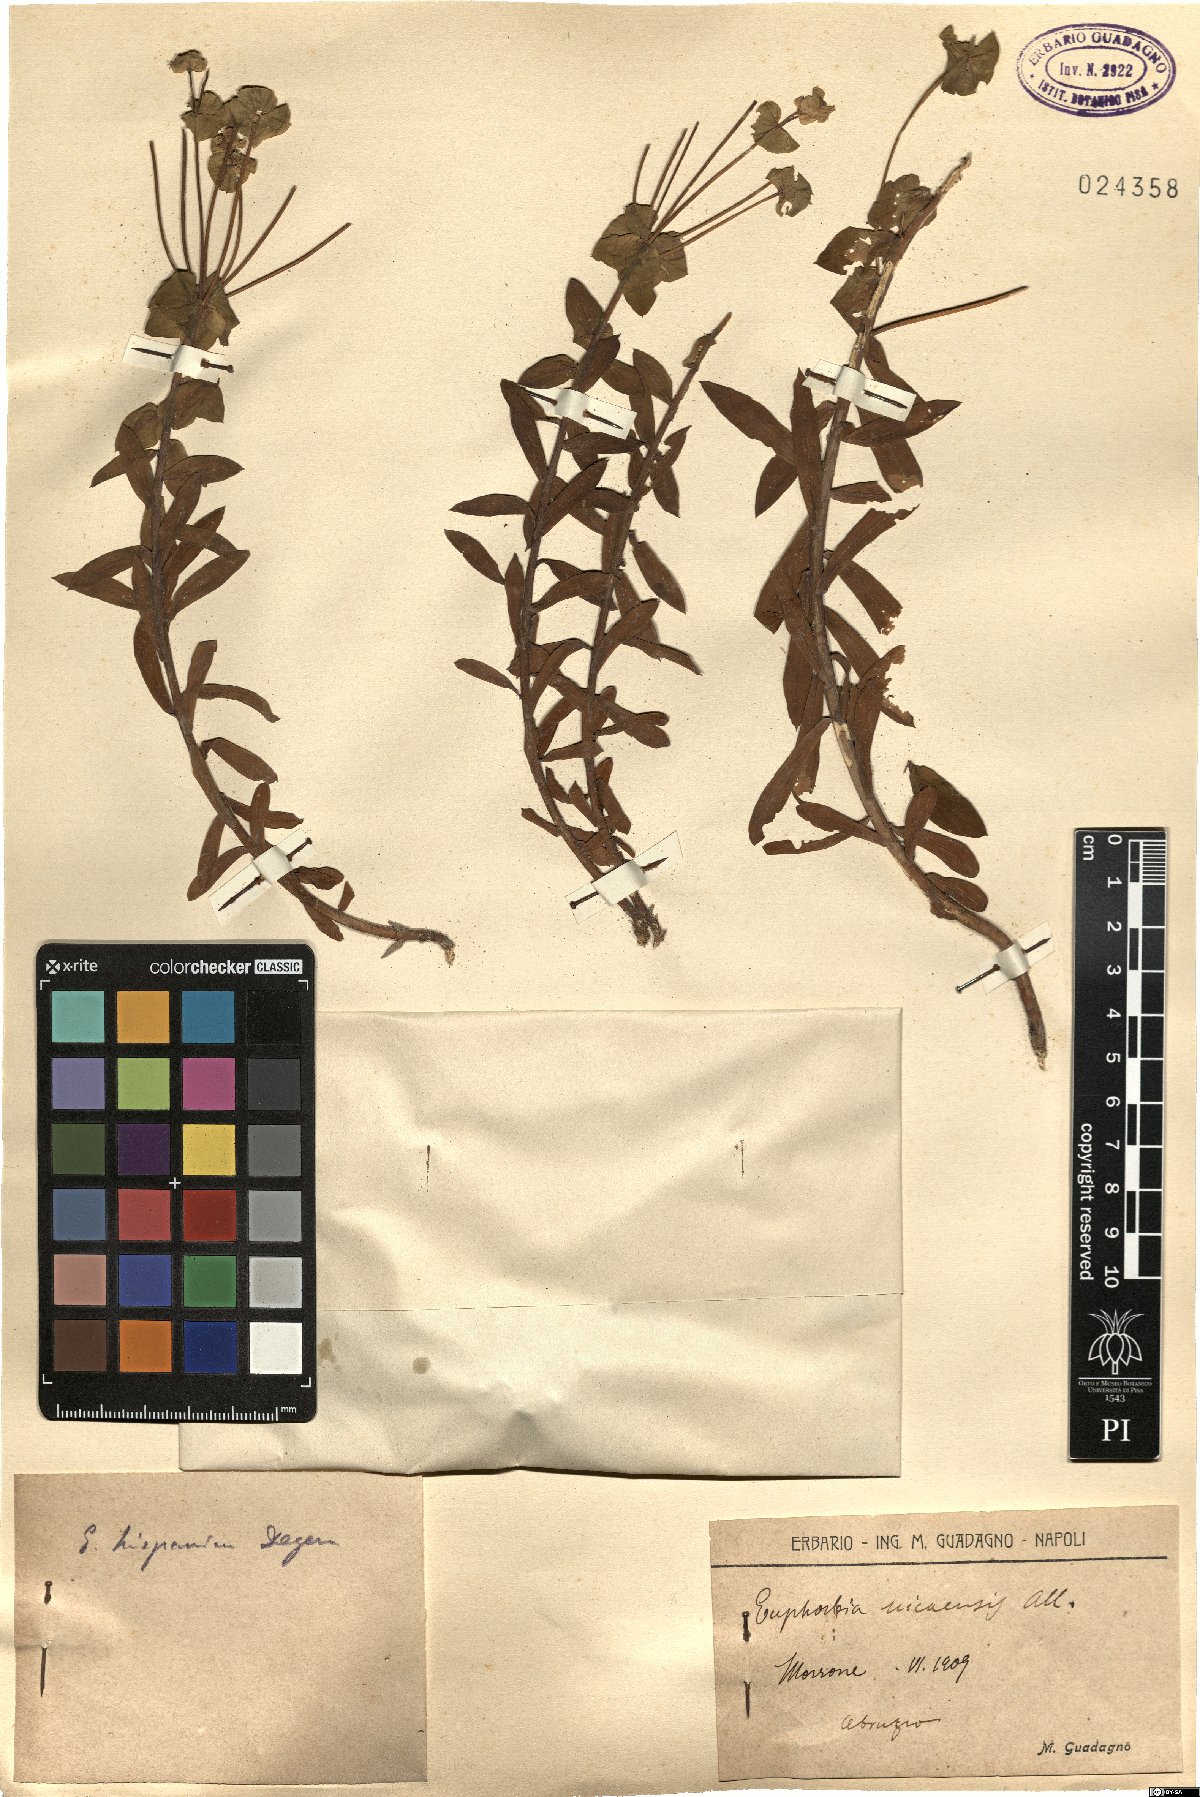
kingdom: Plantae
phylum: Tracheophyta
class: Magnoliopsida
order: Malpighiales
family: Euphorbiaceae
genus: Euphorbia
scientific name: Euphorbia franchetii
